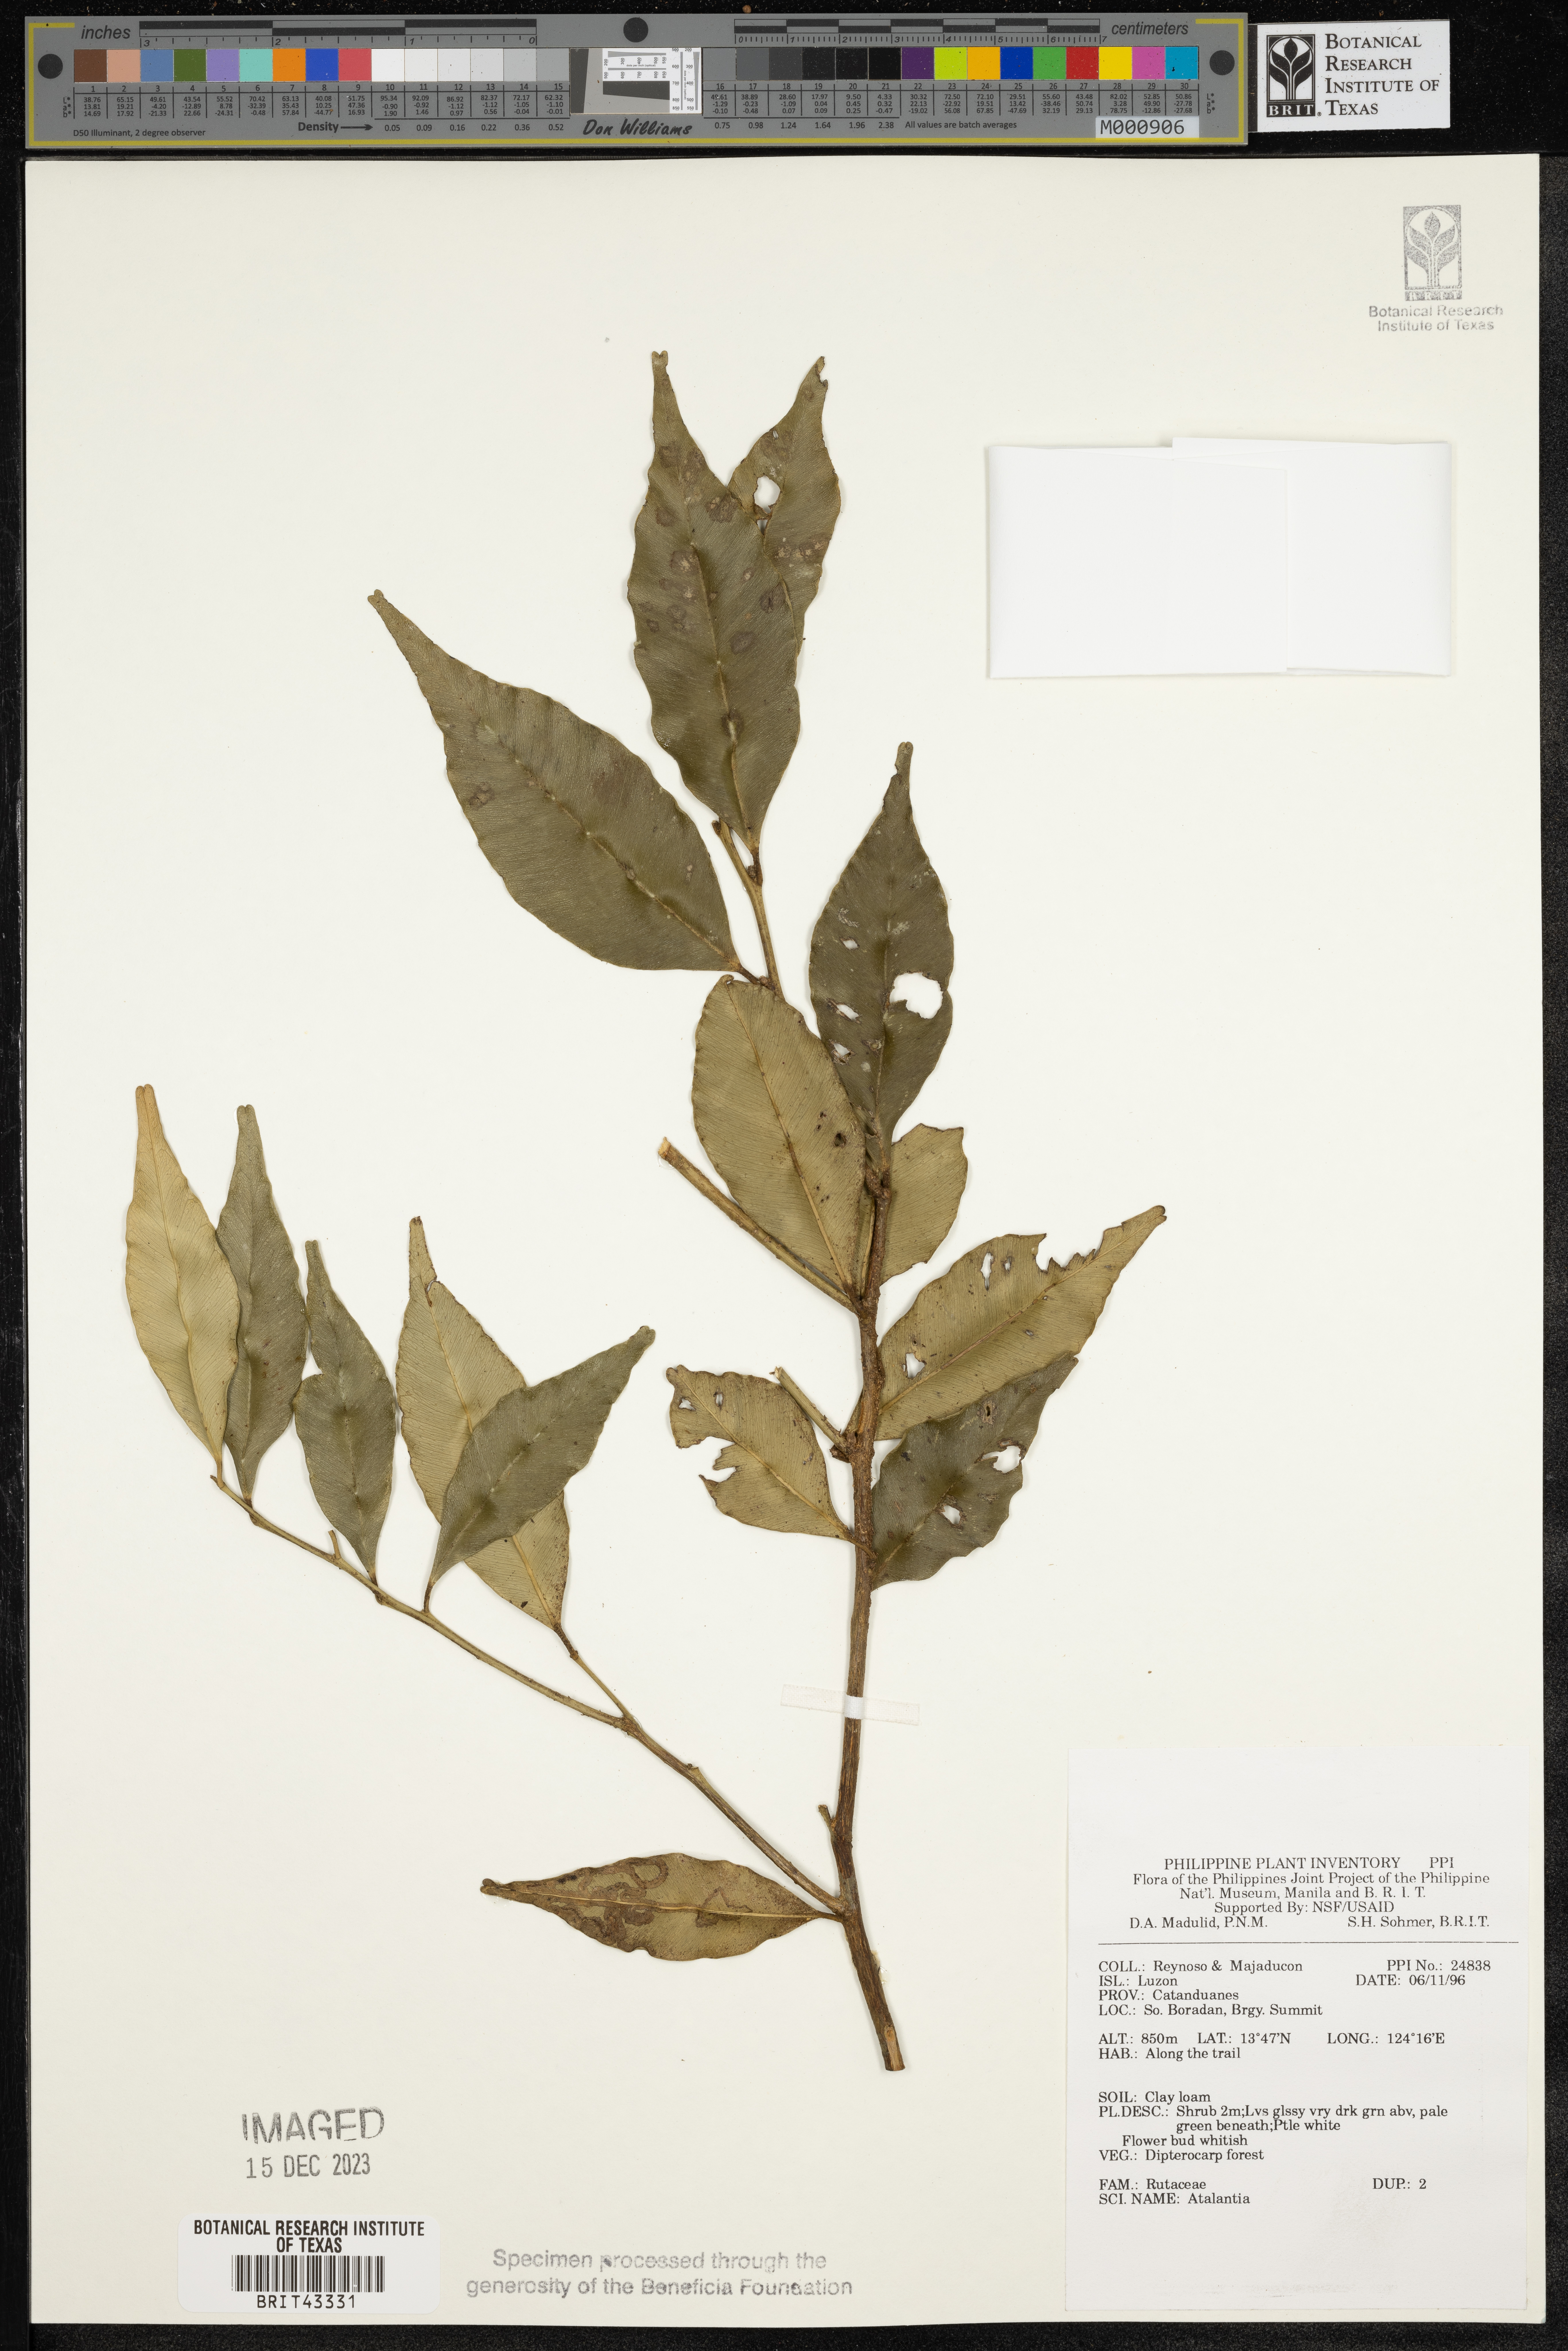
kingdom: Plantae
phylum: Tracheophyta
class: Magnoliopsida
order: Sapindales
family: Rutaceae
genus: Atalantia
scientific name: Atalantia
